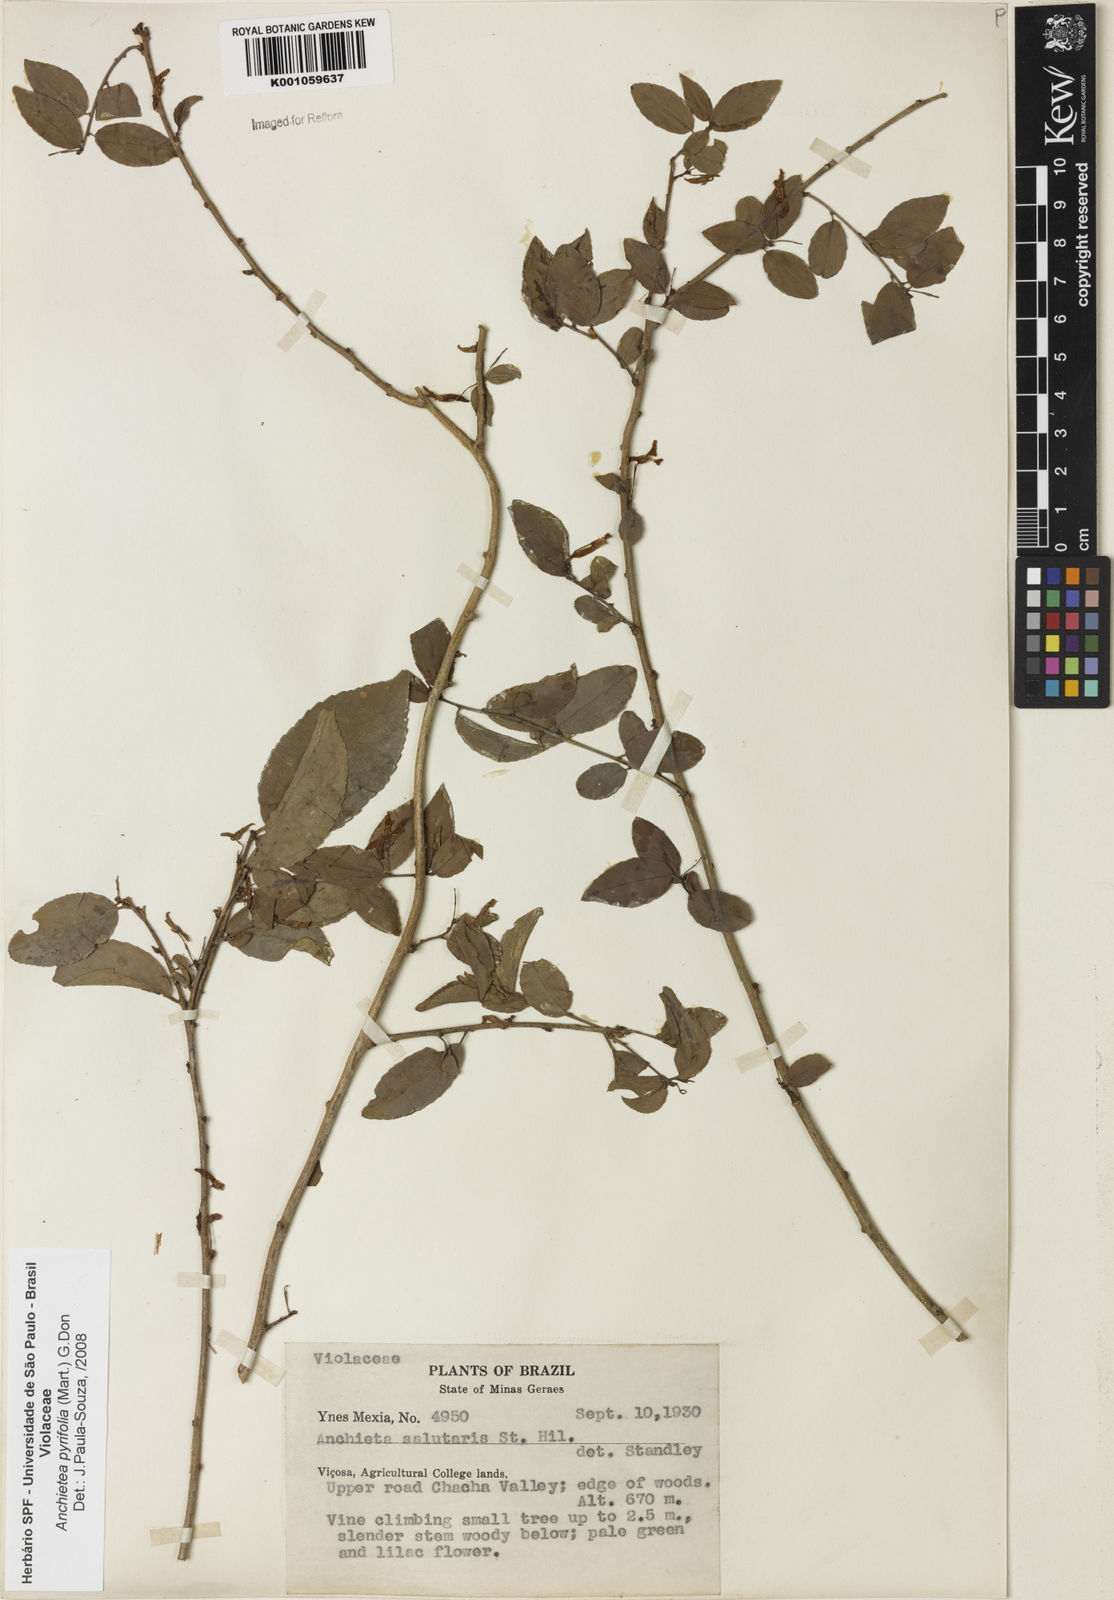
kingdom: Plantae
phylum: Tracheophyta
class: Magnoliopsida
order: Malpighiales
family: Violaceae
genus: Anchietea
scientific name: Anchietea pyrifolia
